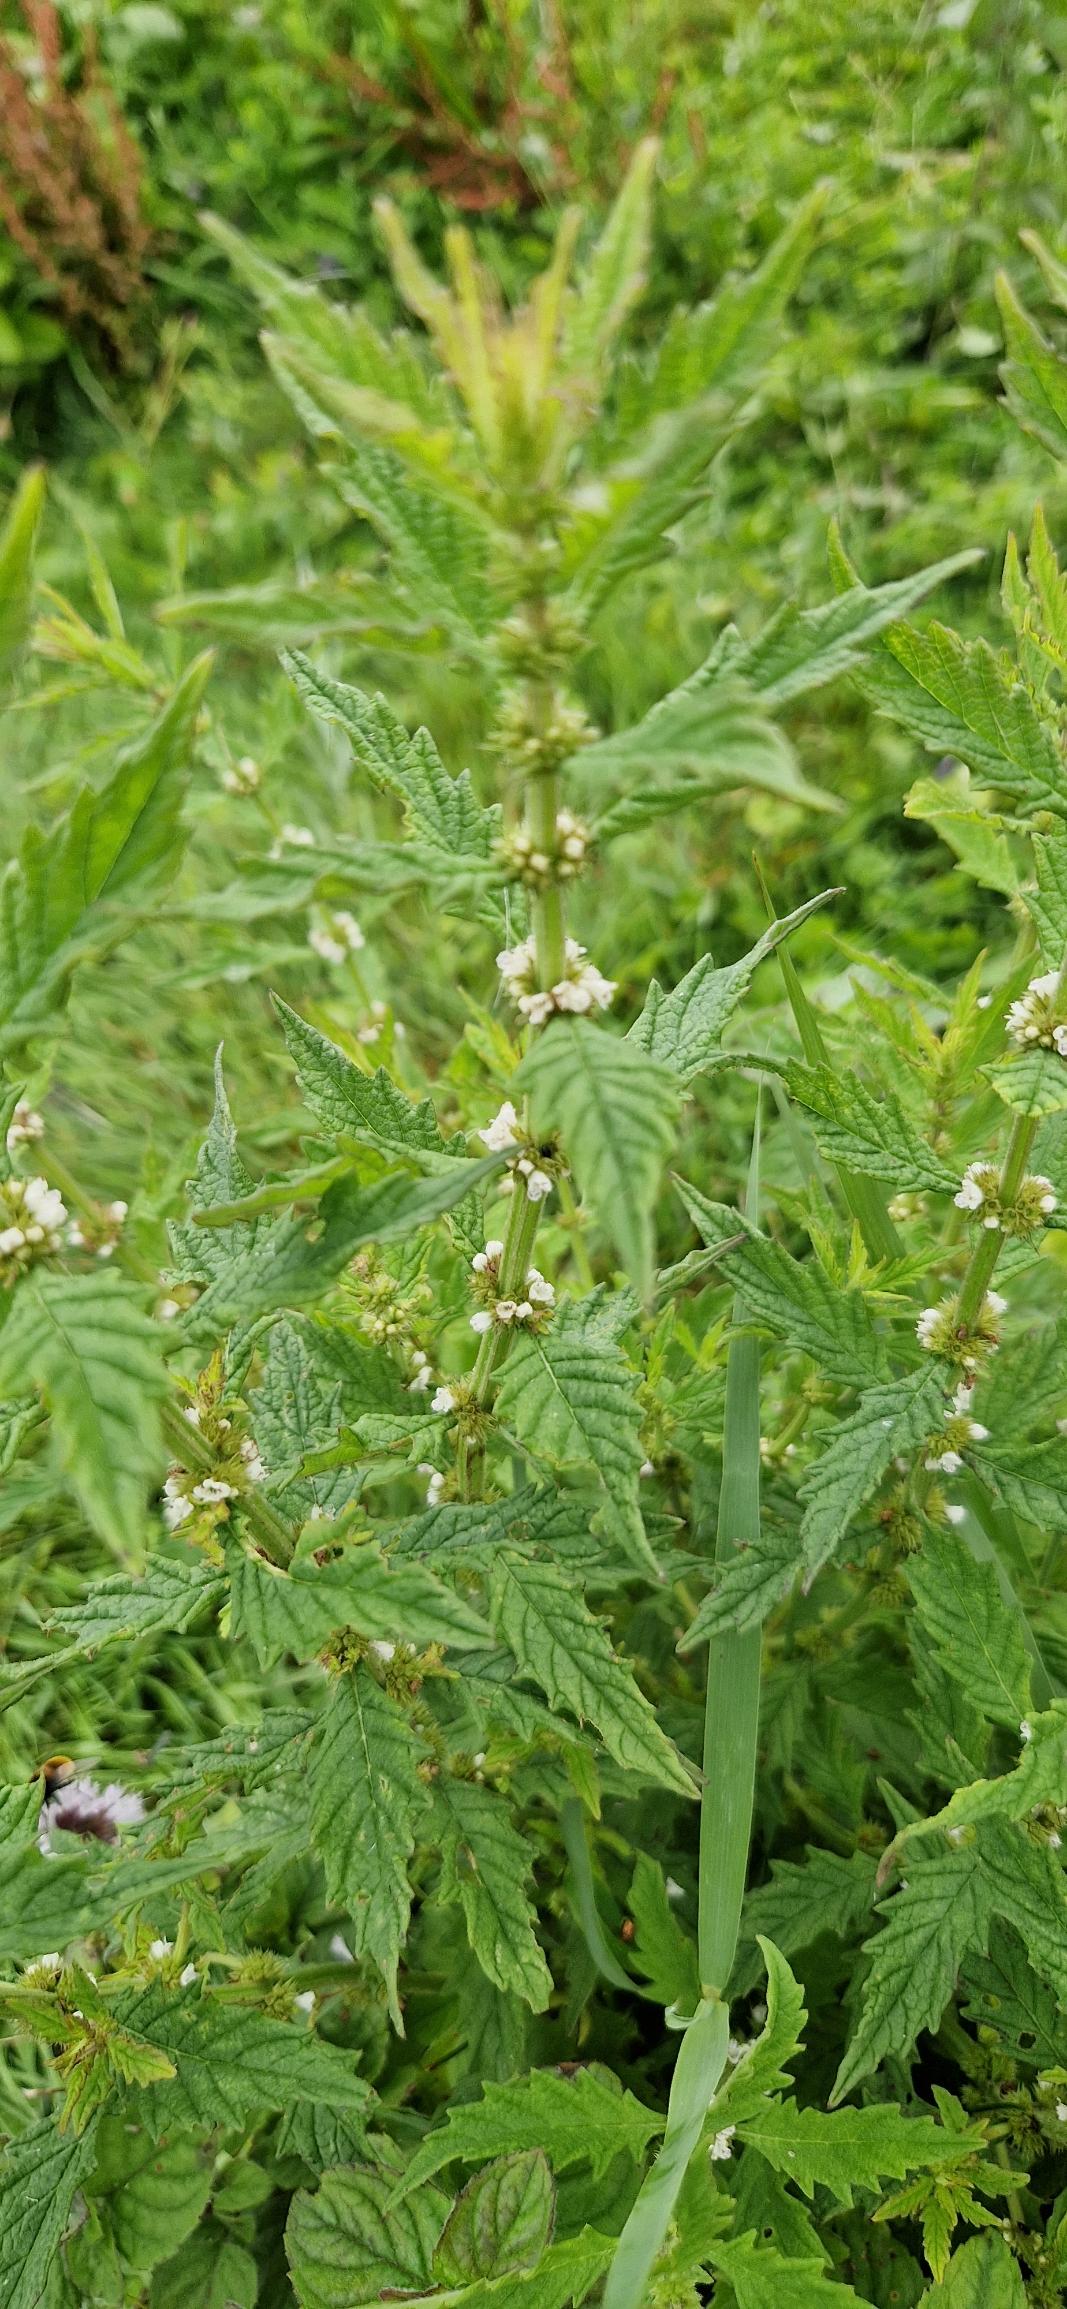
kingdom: Plantae
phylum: Tracheophyta
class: Magnoliopsida
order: Lamiales
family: Lamiaceae
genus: Lycopus
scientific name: Lycopus europaeus
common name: Sværtevæld
